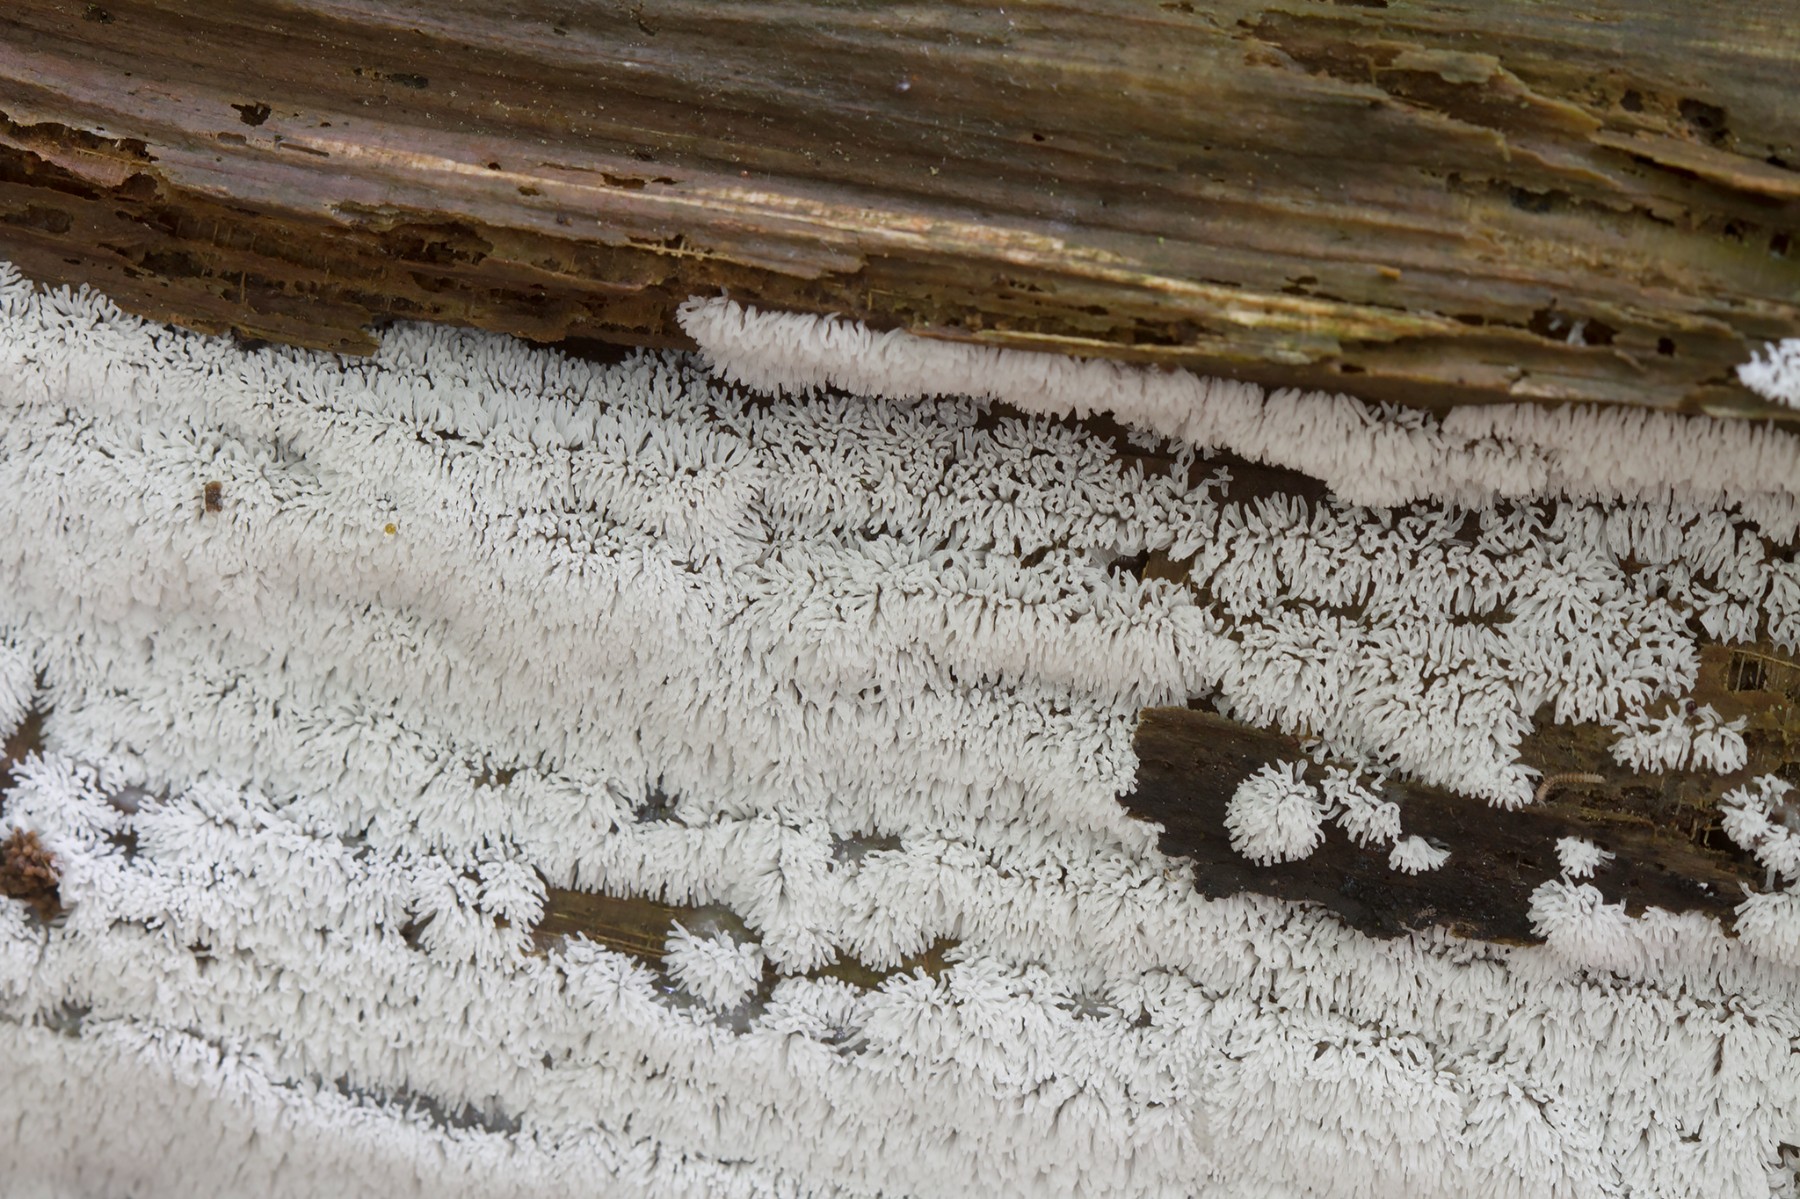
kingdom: Protozoa
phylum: Mycetozoa
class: Protosteliomycetes
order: Ceratiomyxales
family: Ceratiomyxaceae
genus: Ceratiomyxa
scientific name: Ceratiomyxa fruticulosa
